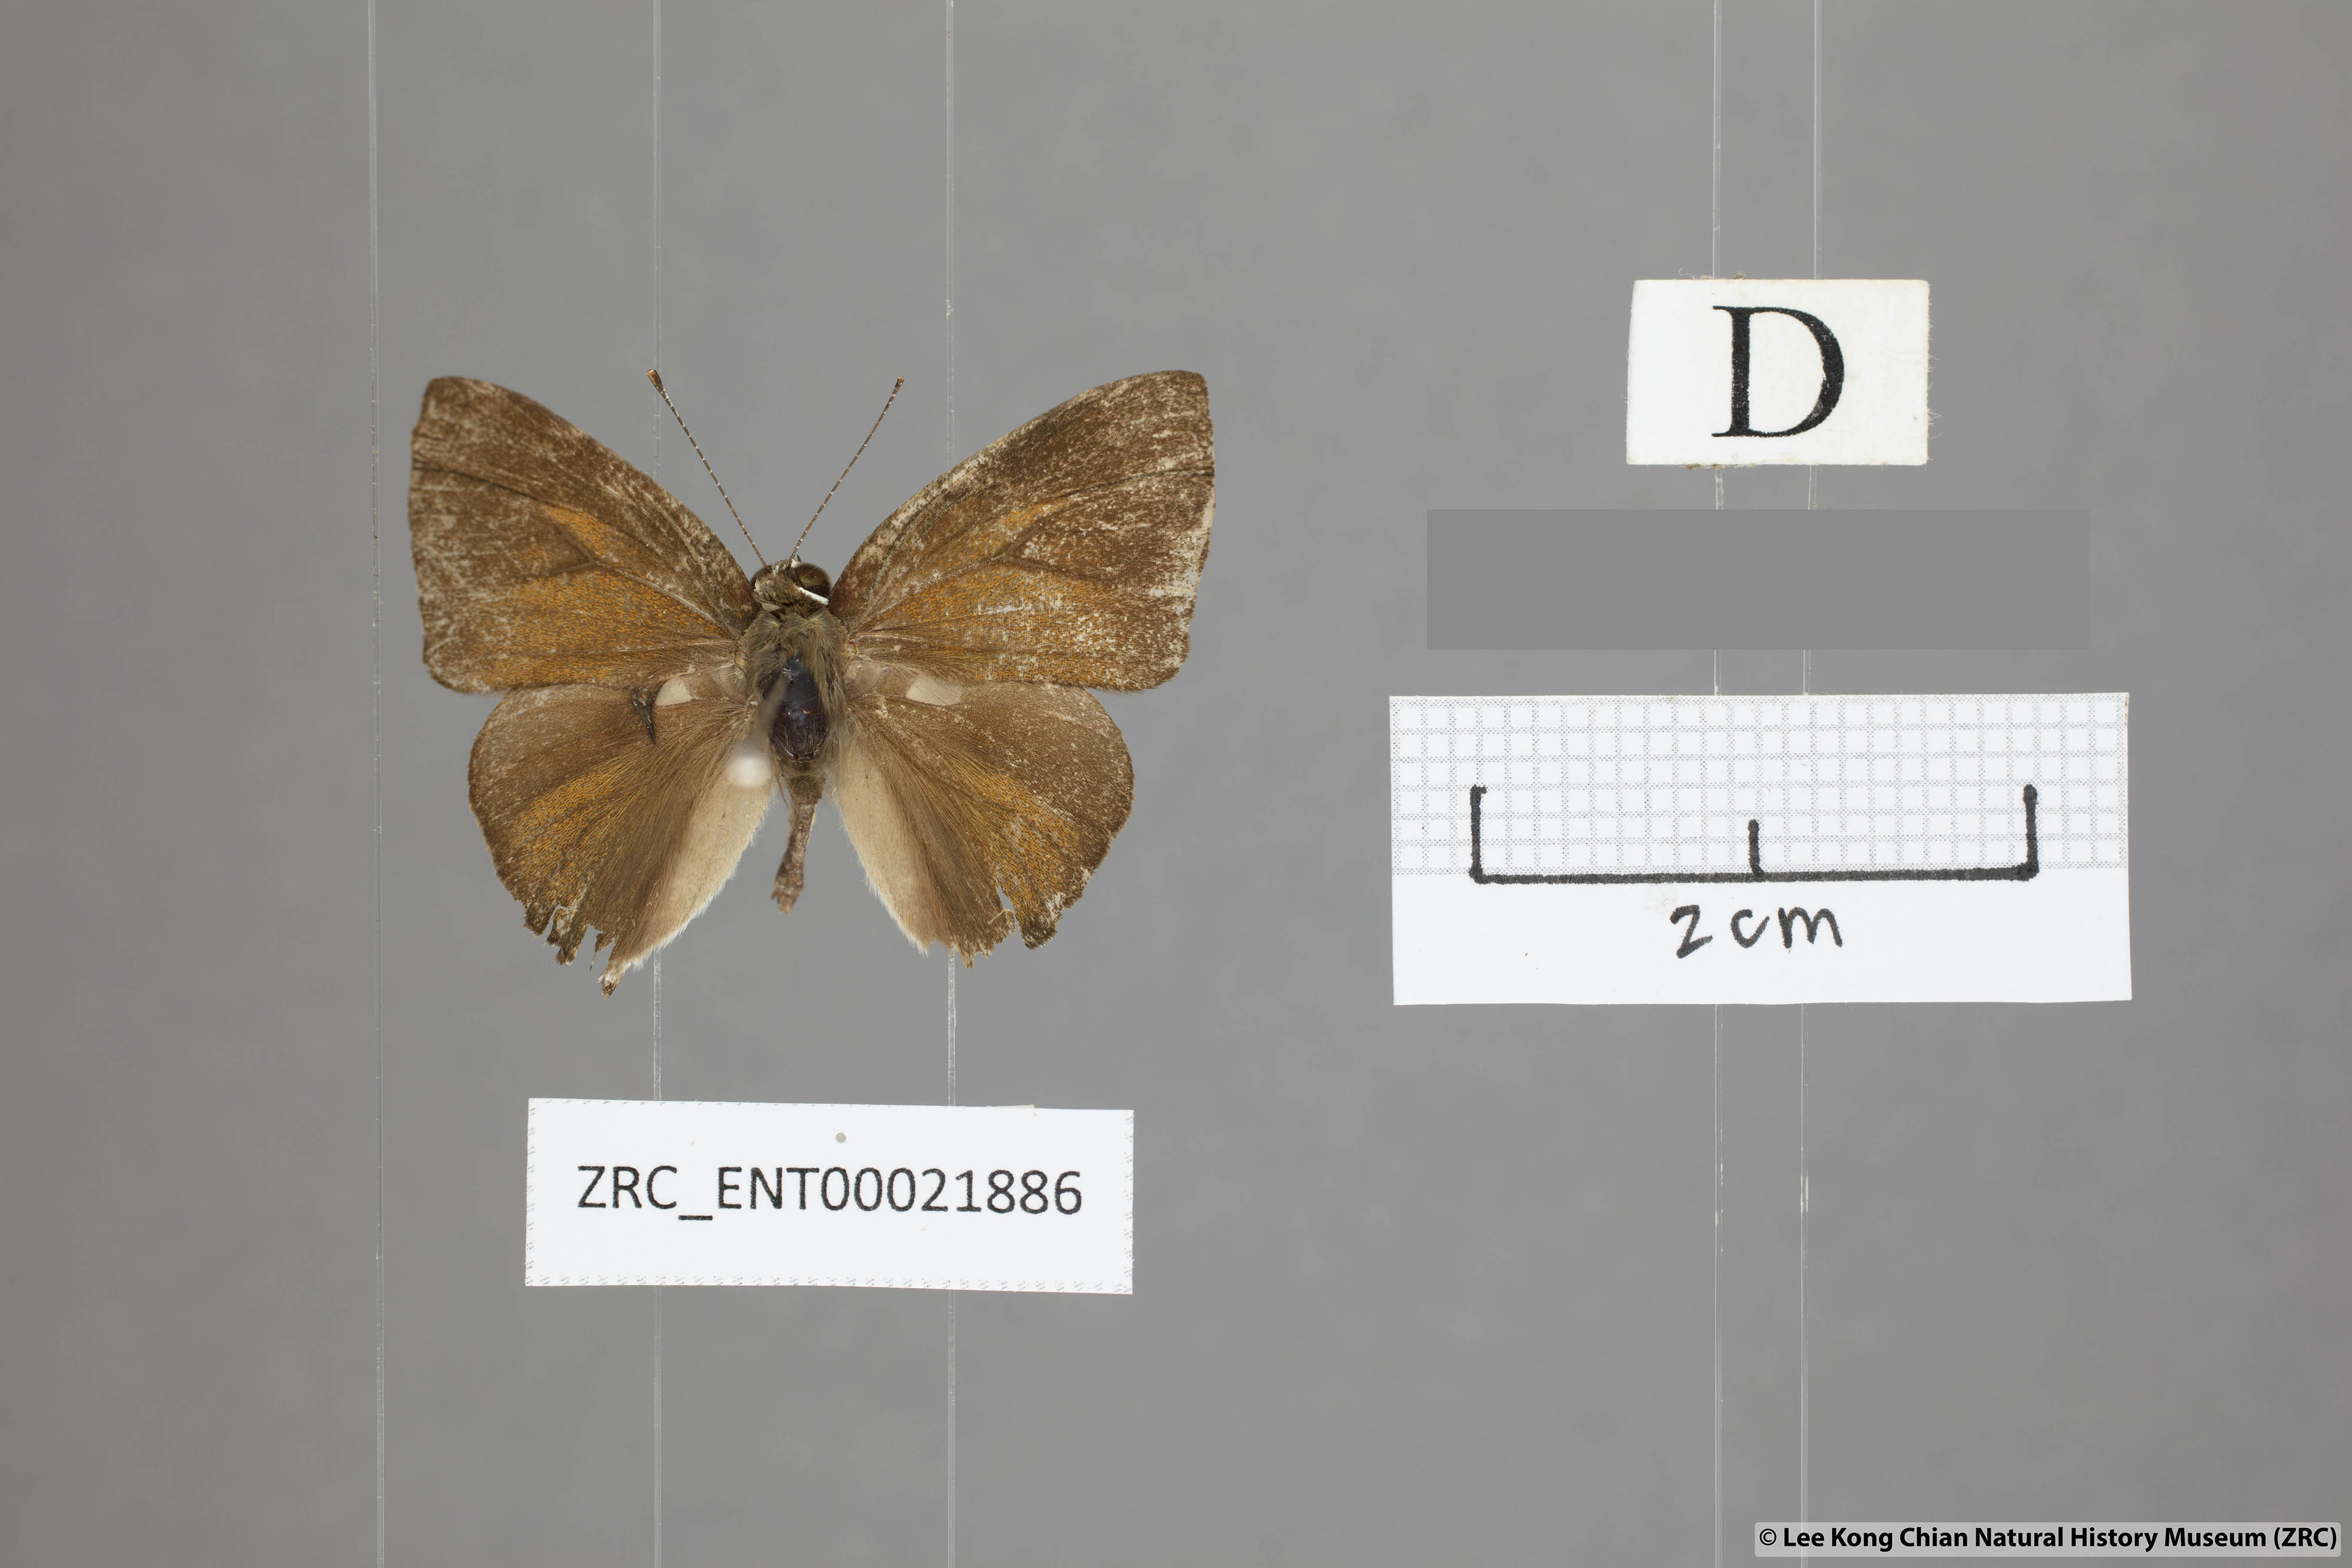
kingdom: Animalia
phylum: Arthropoda
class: Insecta
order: Lepidoptera
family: Lycaenidae
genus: Rapala
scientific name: Rapala rhodopis
